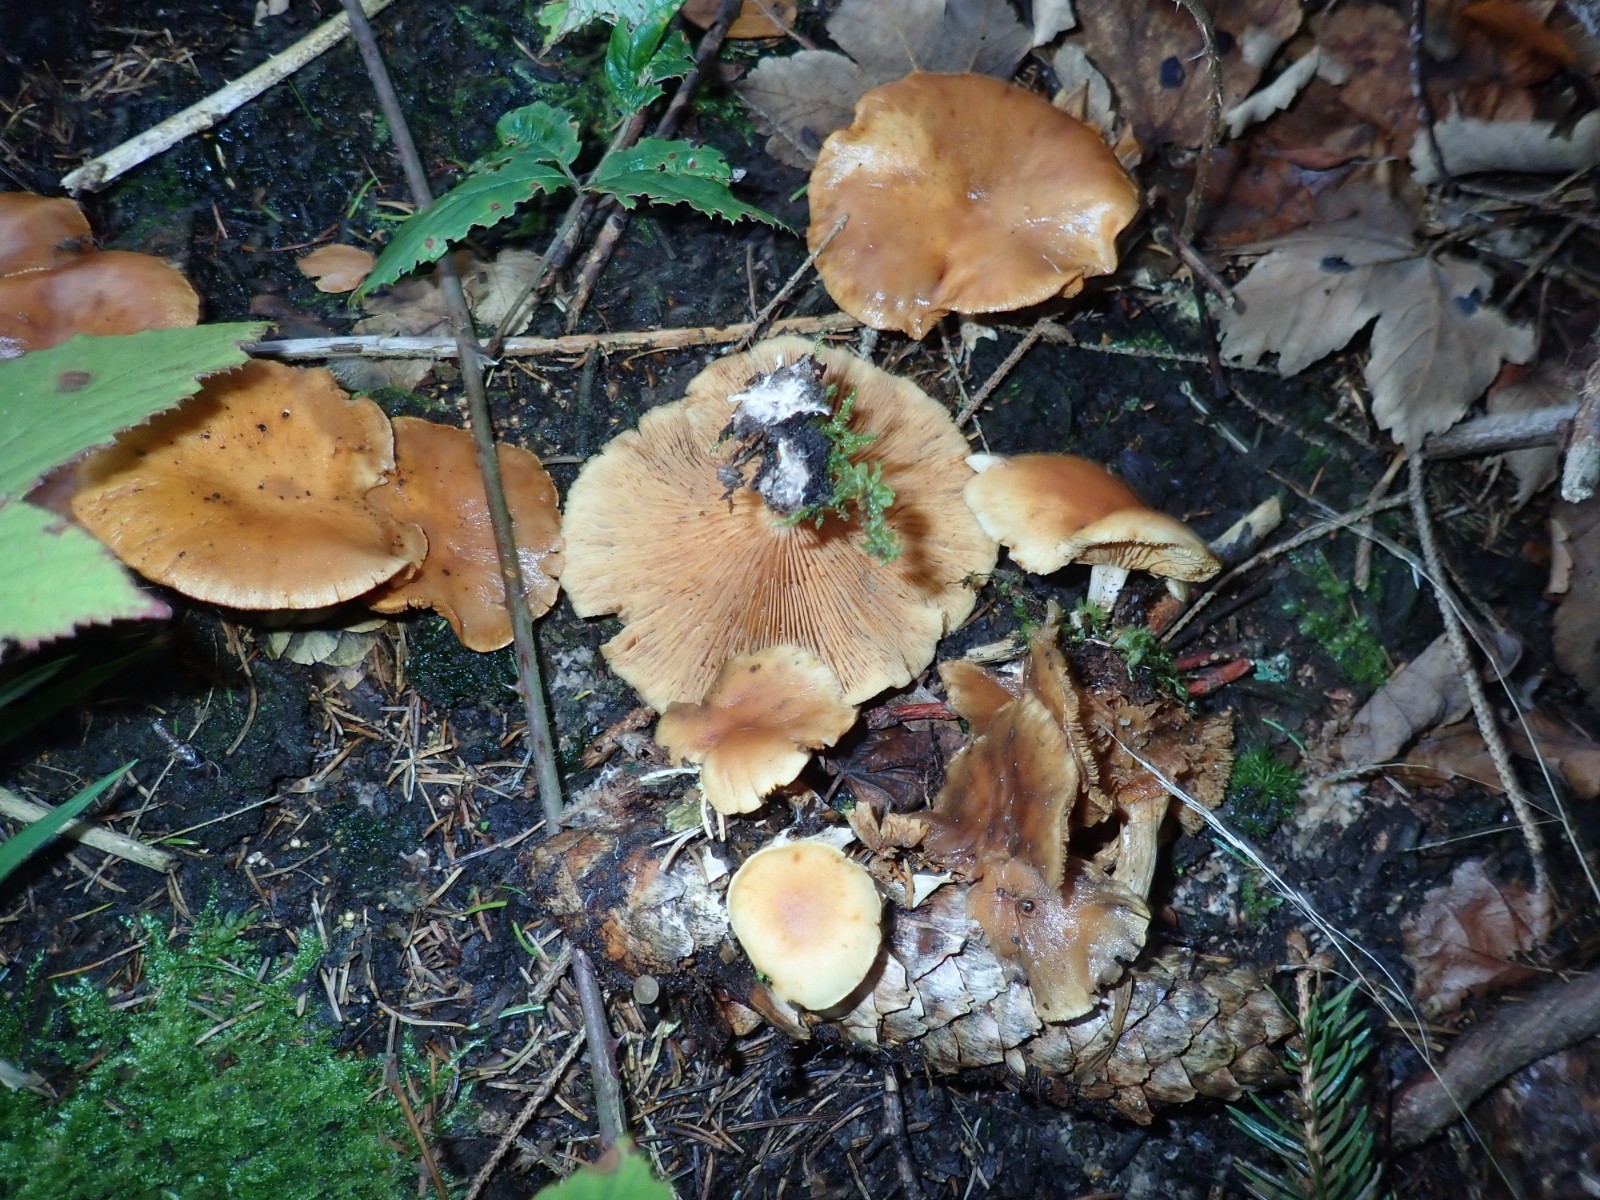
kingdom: Fungi
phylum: Basidiomycota
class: Agaricomycetes
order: Agaricales
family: Hymenogastraceae
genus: Gymnopilus
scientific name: Gymnopilus penetrans
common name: plettet flammehat
